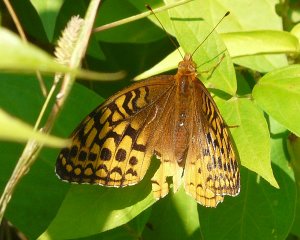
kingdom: Animalia
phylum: Arthropoda
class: Insecta
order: Lepidoptera
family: Nymphalidae
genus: Speyeria
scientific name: Speyeria cybele
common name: Great Spangled Fritillary
